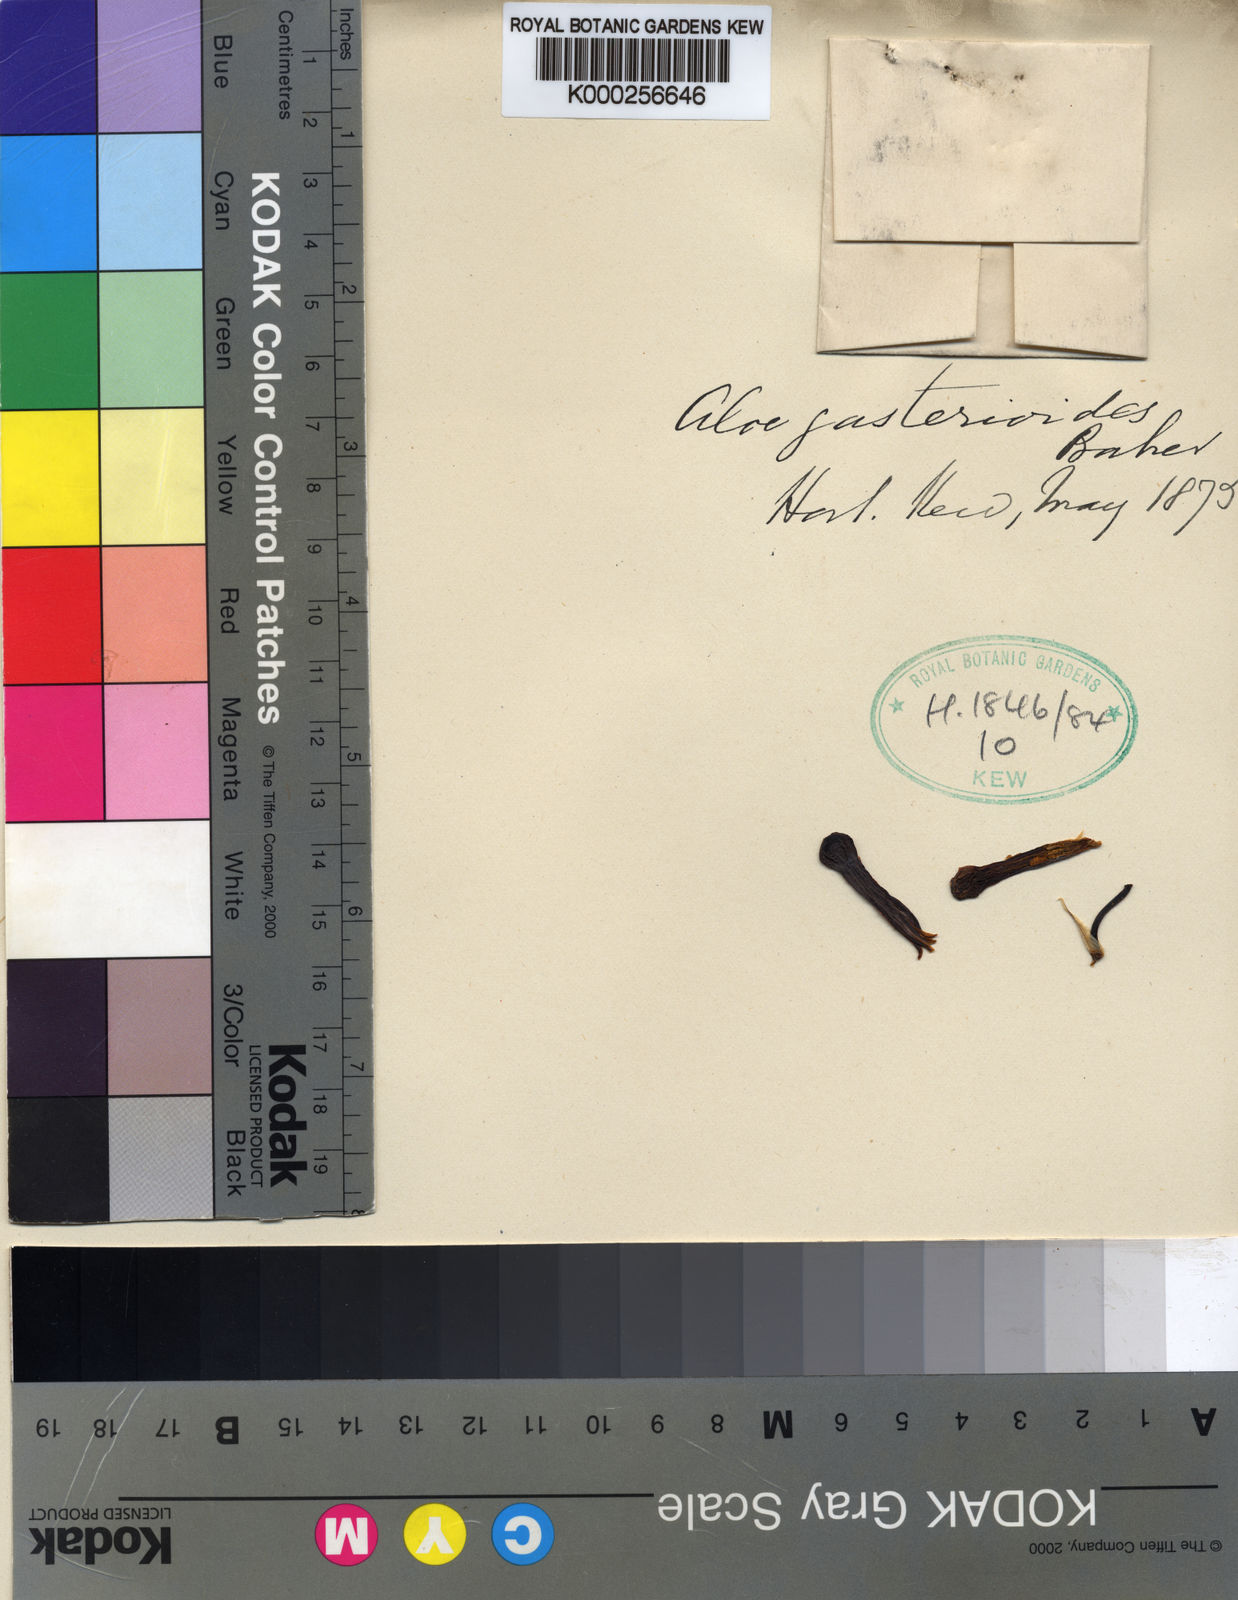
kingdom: Plantae
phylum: Tracheophyta
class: Liliopsida
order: Asparagales
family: Asphodelaceae
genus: Aloe
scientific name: Aloe maculata
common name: Broadleaf aloe
